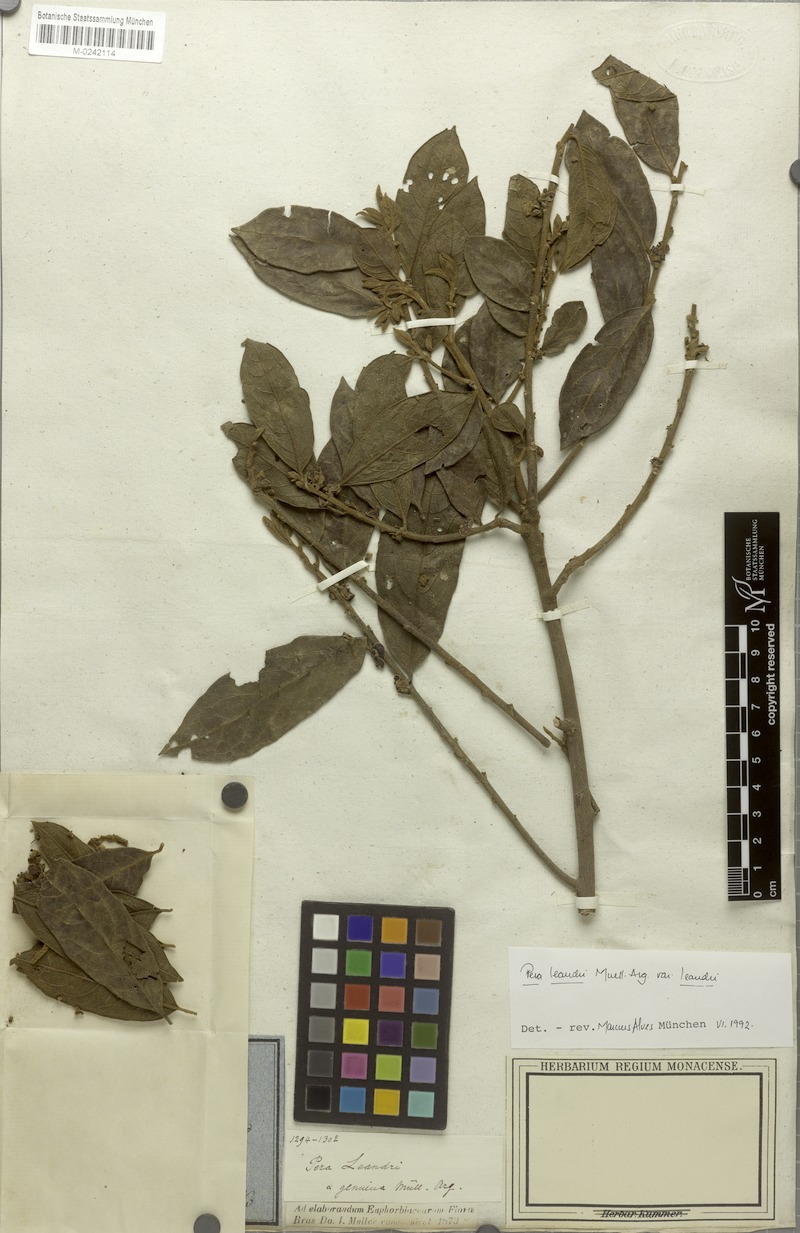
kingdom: Plantae
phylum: Tracheophyta
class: Magnoliopsida
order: Malpighiales
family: Peraceae
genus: Pera
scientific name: Pera distichophylla
